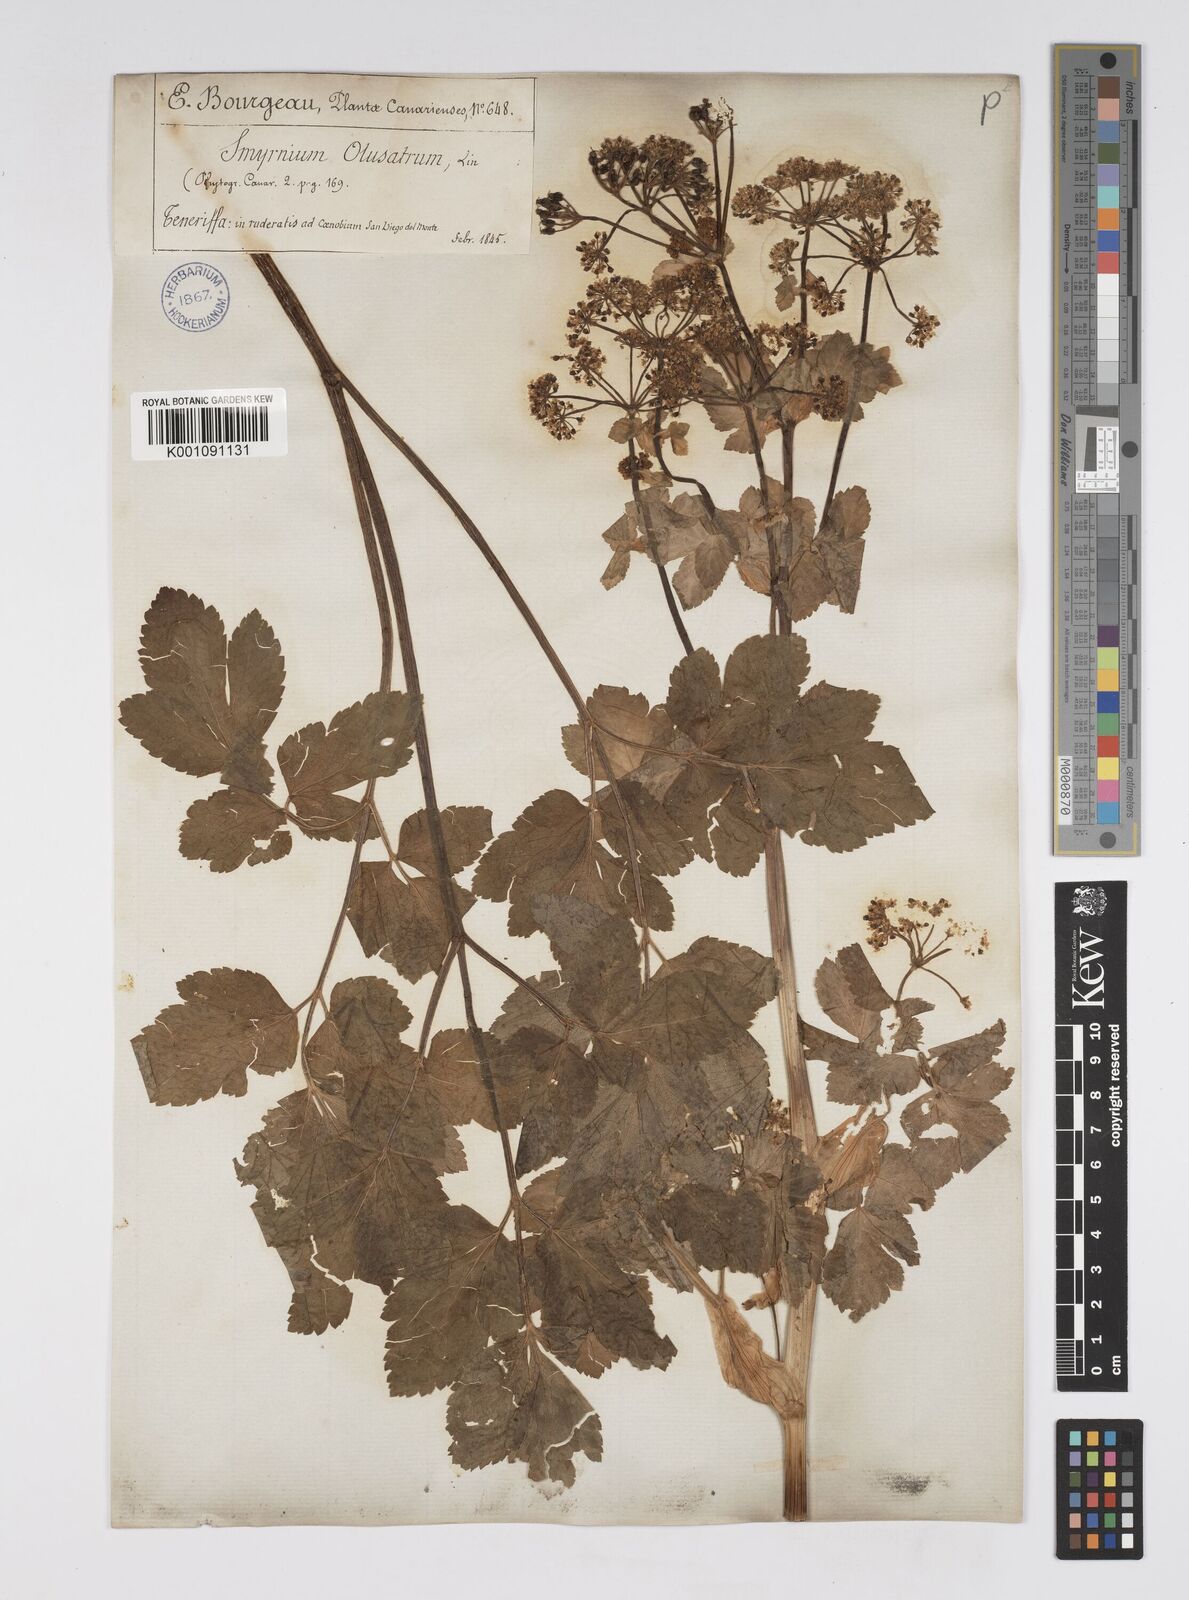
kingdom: Plantae
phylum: Tracheophyta
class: Magnoliopsida
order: Apiales
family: Apiaceae
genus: Smyrnium
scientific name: Smyrnium olusatrum
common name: Alexanders
